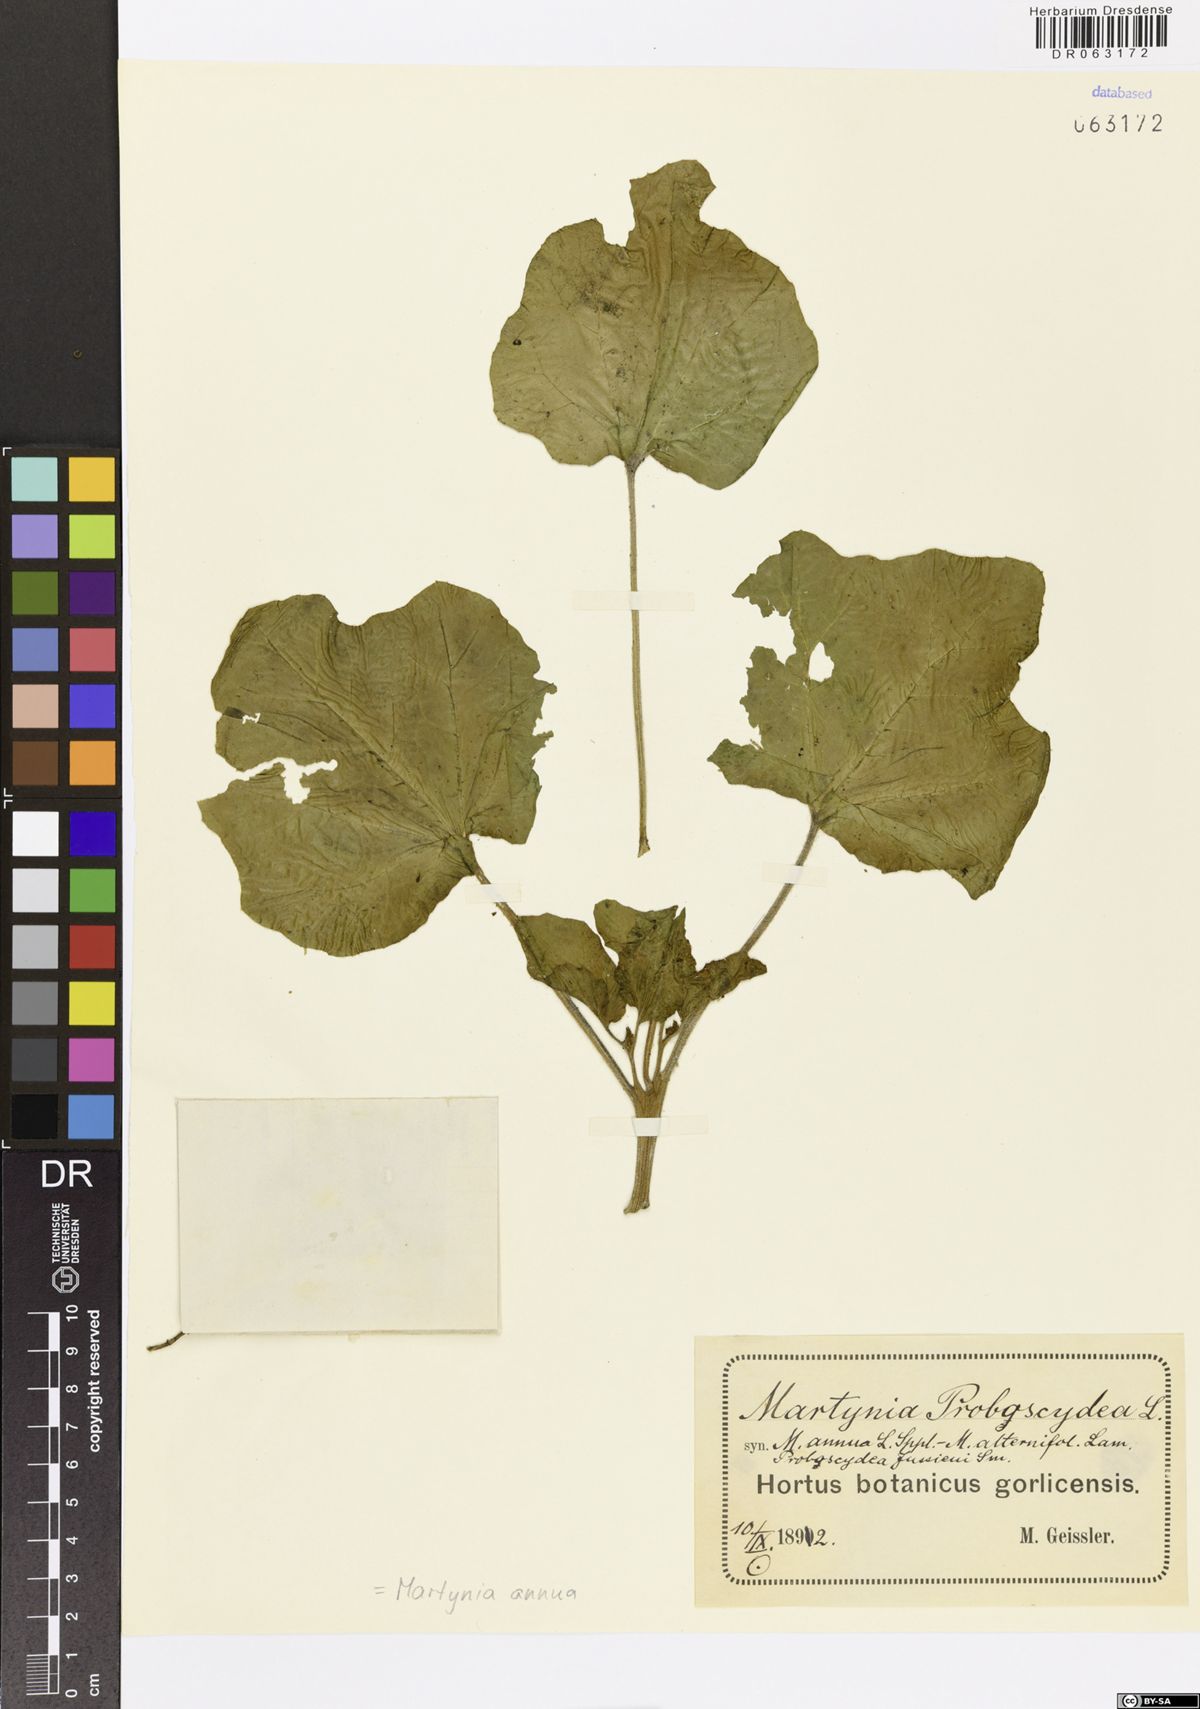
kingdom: Plantae
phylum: Tracheophyta
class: Magnoliopsida
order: Lamiales
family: Martyniaceae
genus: Martynia
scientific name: Martynia annua
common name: Tiger's-claw
